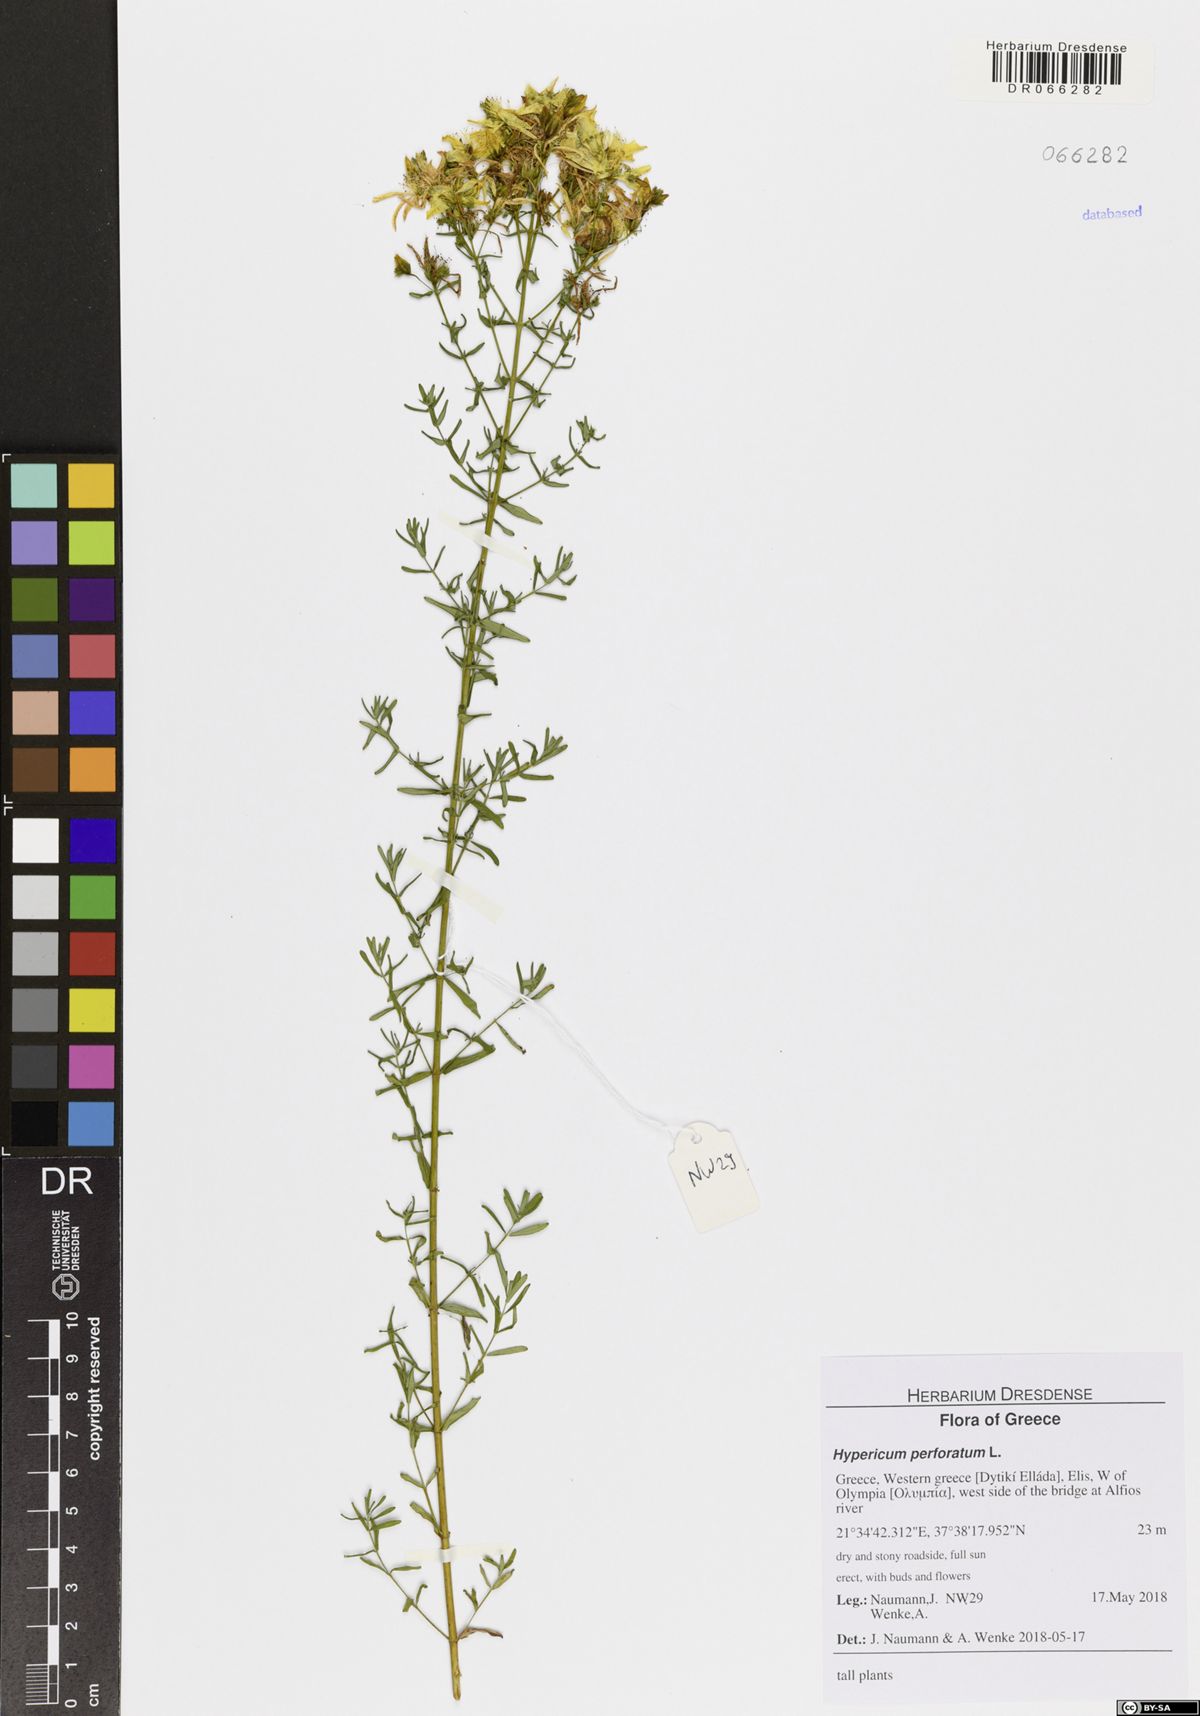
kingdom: Plantae
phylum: Tracheophyta
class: Magnoliopsida
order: Malpighiales
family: Hypericaceae
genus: Hypericum
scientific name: Hypericum perforatum
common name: Common st. johnswort
